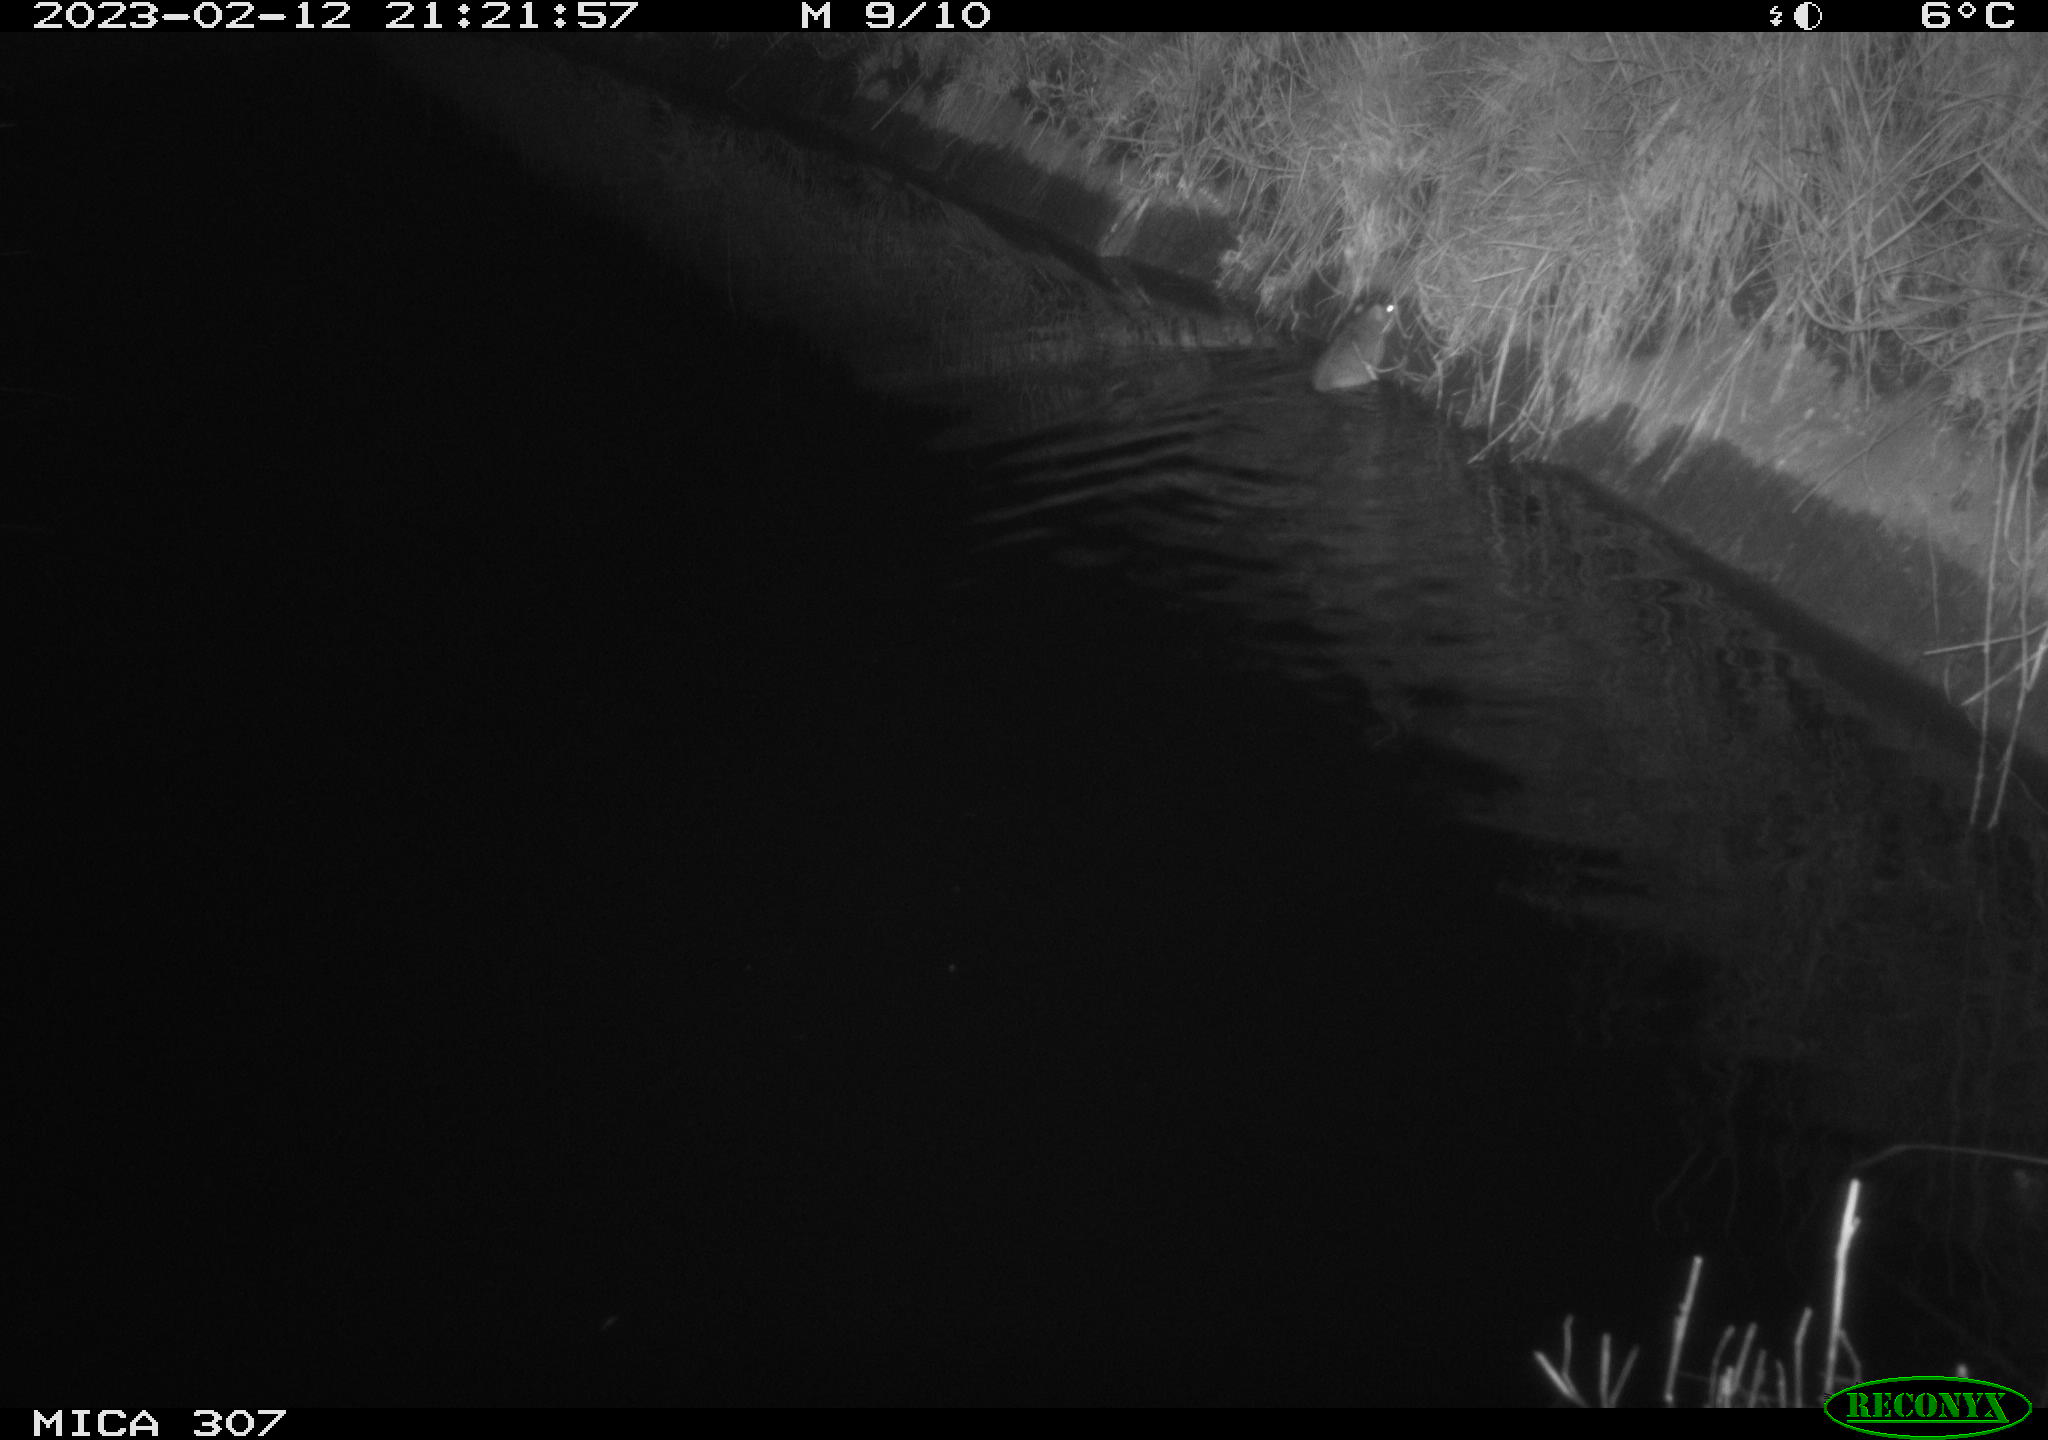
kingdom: Animalia
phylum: Chordata
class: Mammalia
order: Rodentia
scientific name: Rodentia
